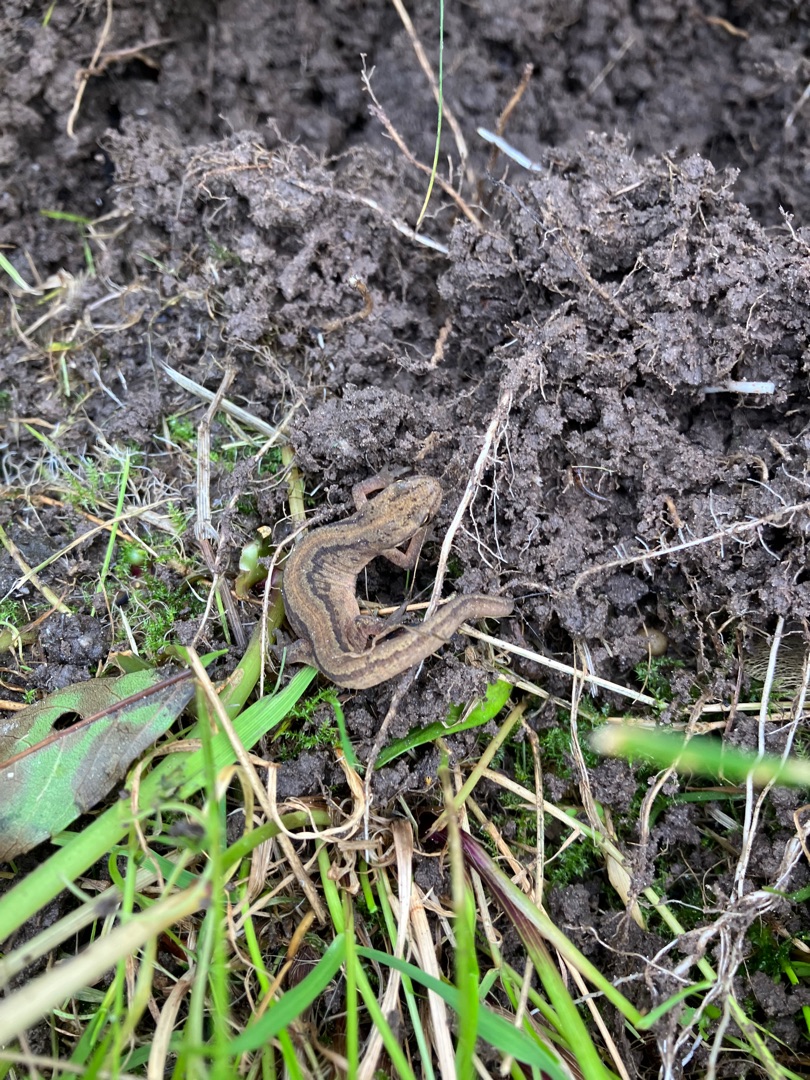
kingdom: Animalia
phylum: Chordata
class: Amphibia
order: Caudata
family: Salamandridae
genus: Lissotriton
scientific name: Lissotriton vulgaris
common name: Lille vandsalamander
